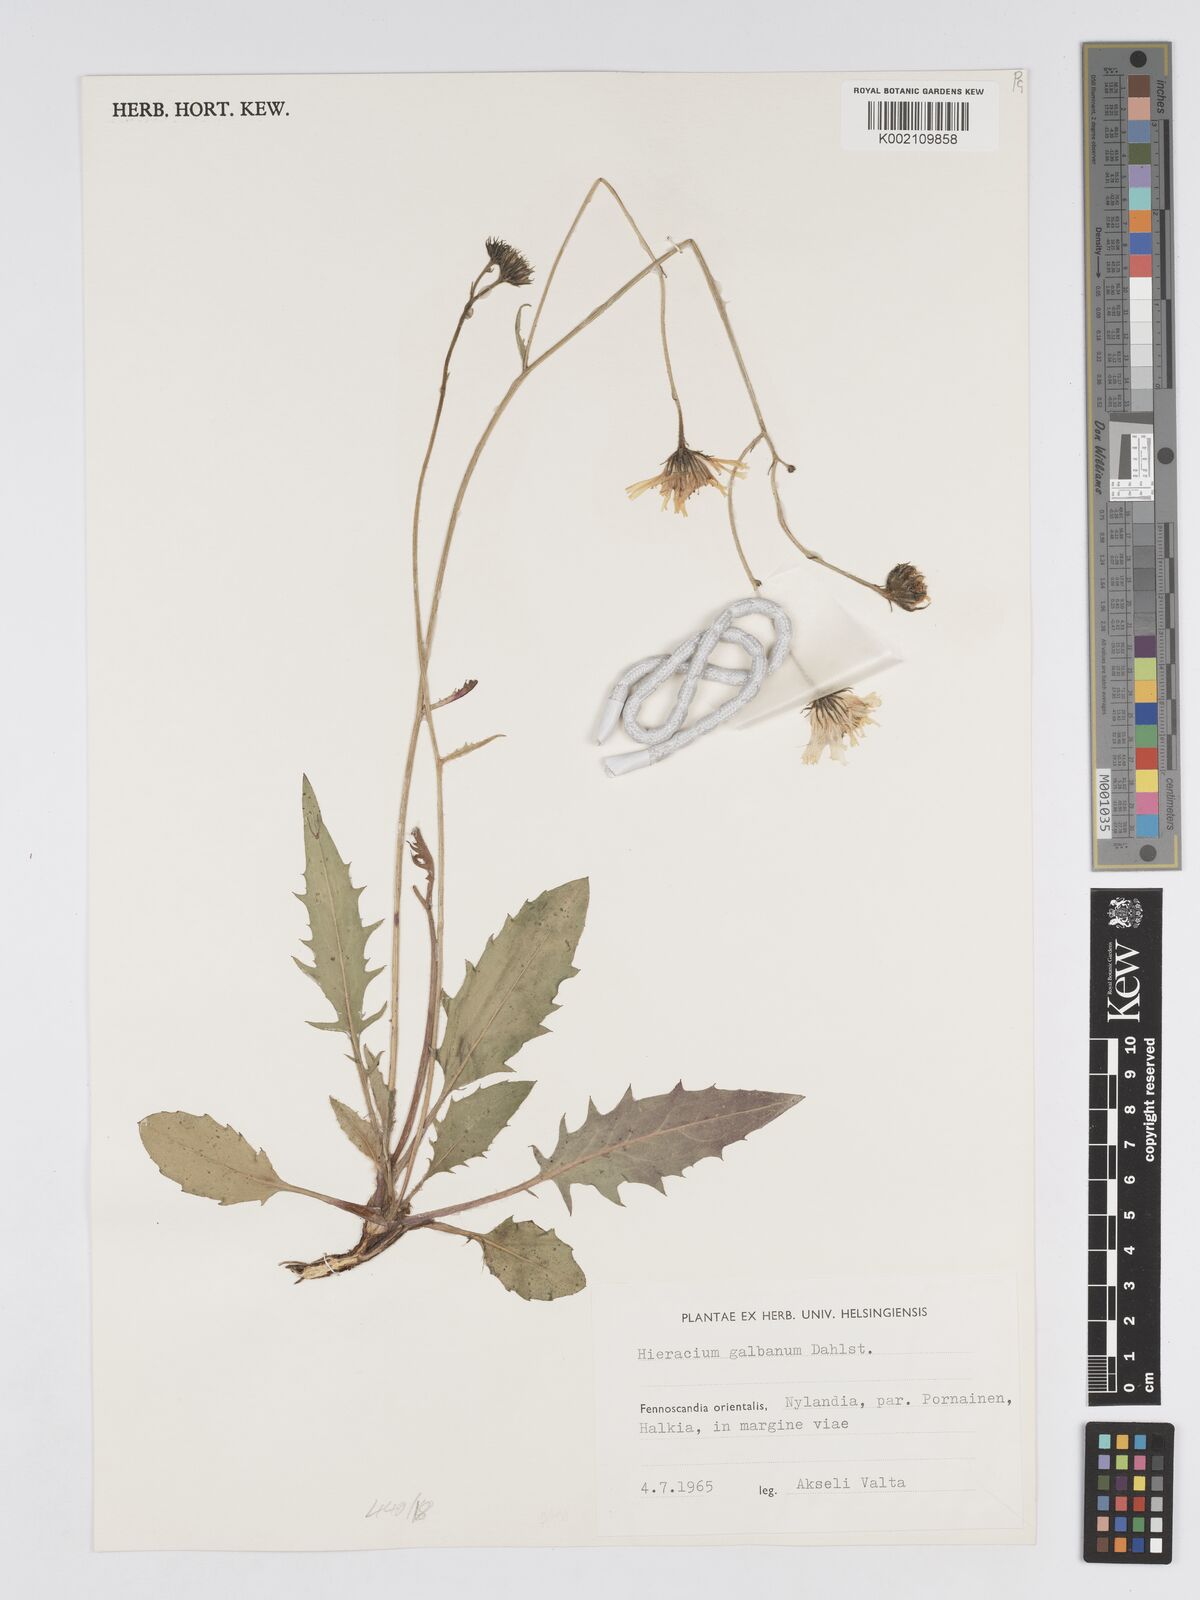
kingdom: Plantae
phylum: Tracheophyta
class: Magnoliopsida
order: Asterales
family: Asteraceae
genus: Hieracium
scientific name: Hieracium caesium
